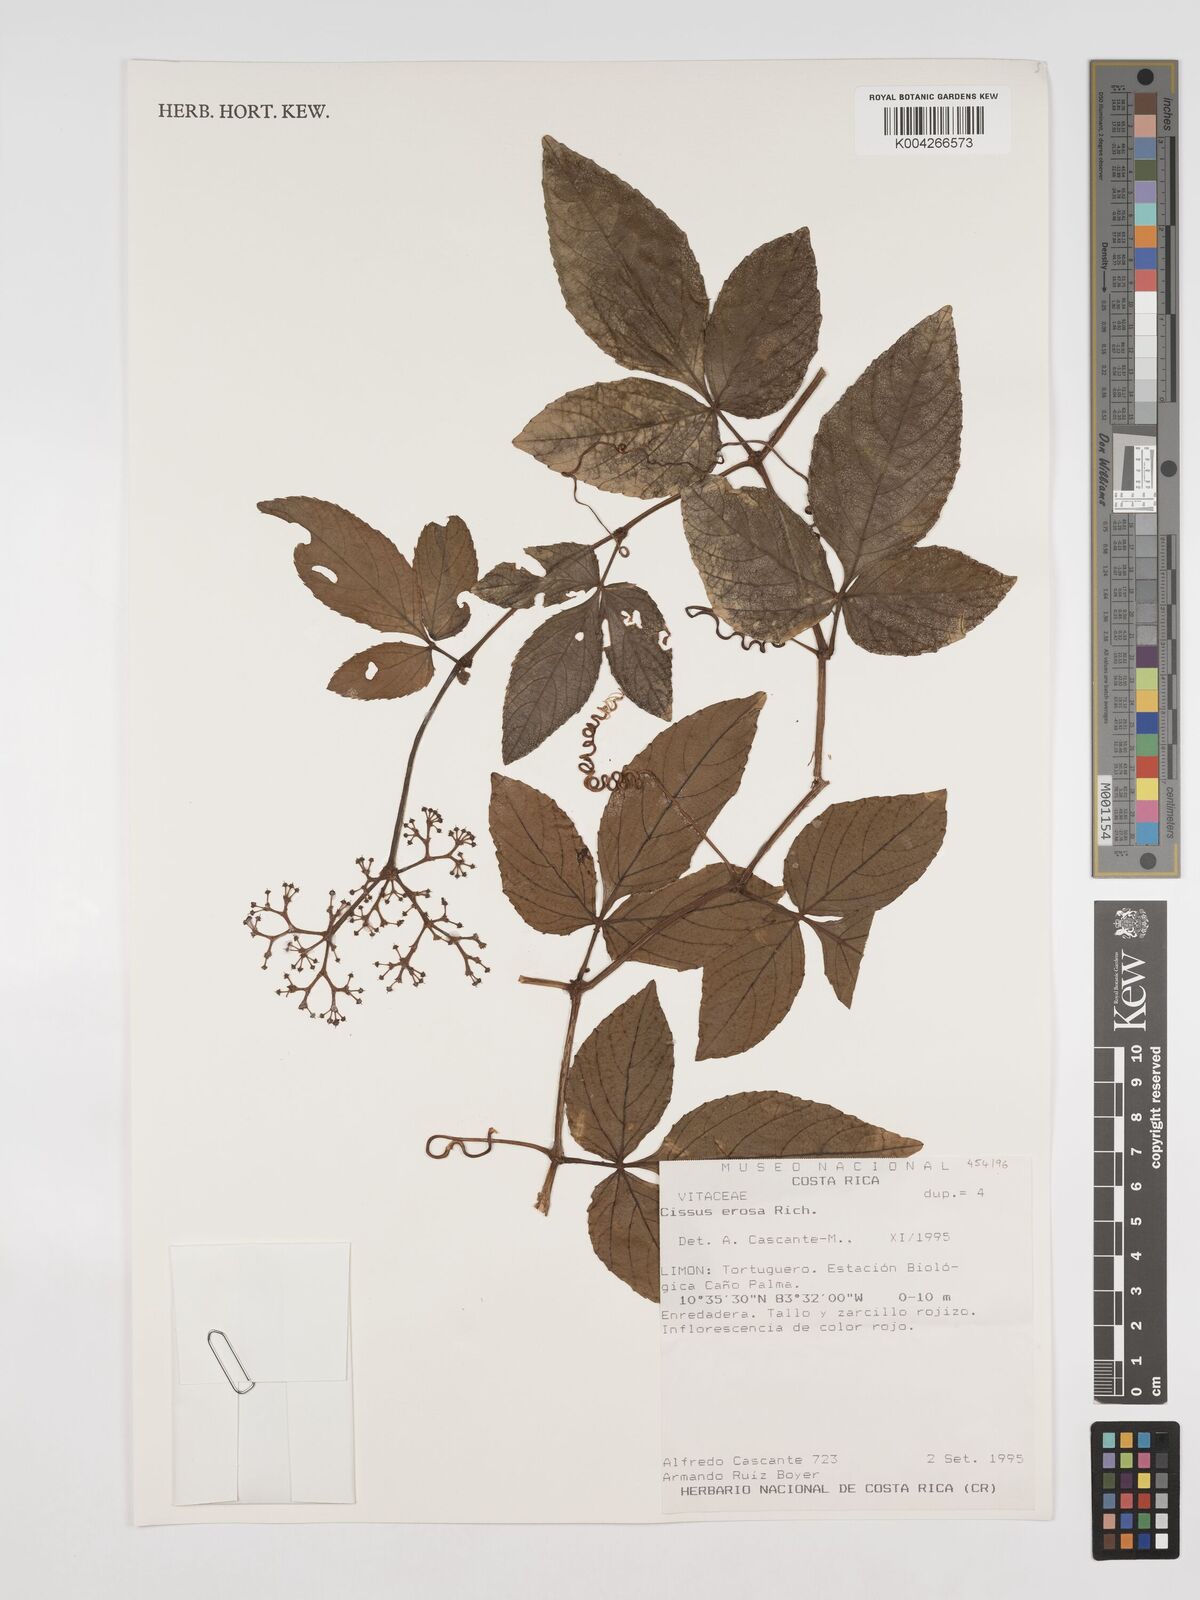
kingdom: Plantae
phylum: Tracheophyta
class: Magnoliopsida
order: Vitales
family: Vitaceae
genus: Cissus
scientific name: Cissus erosa
